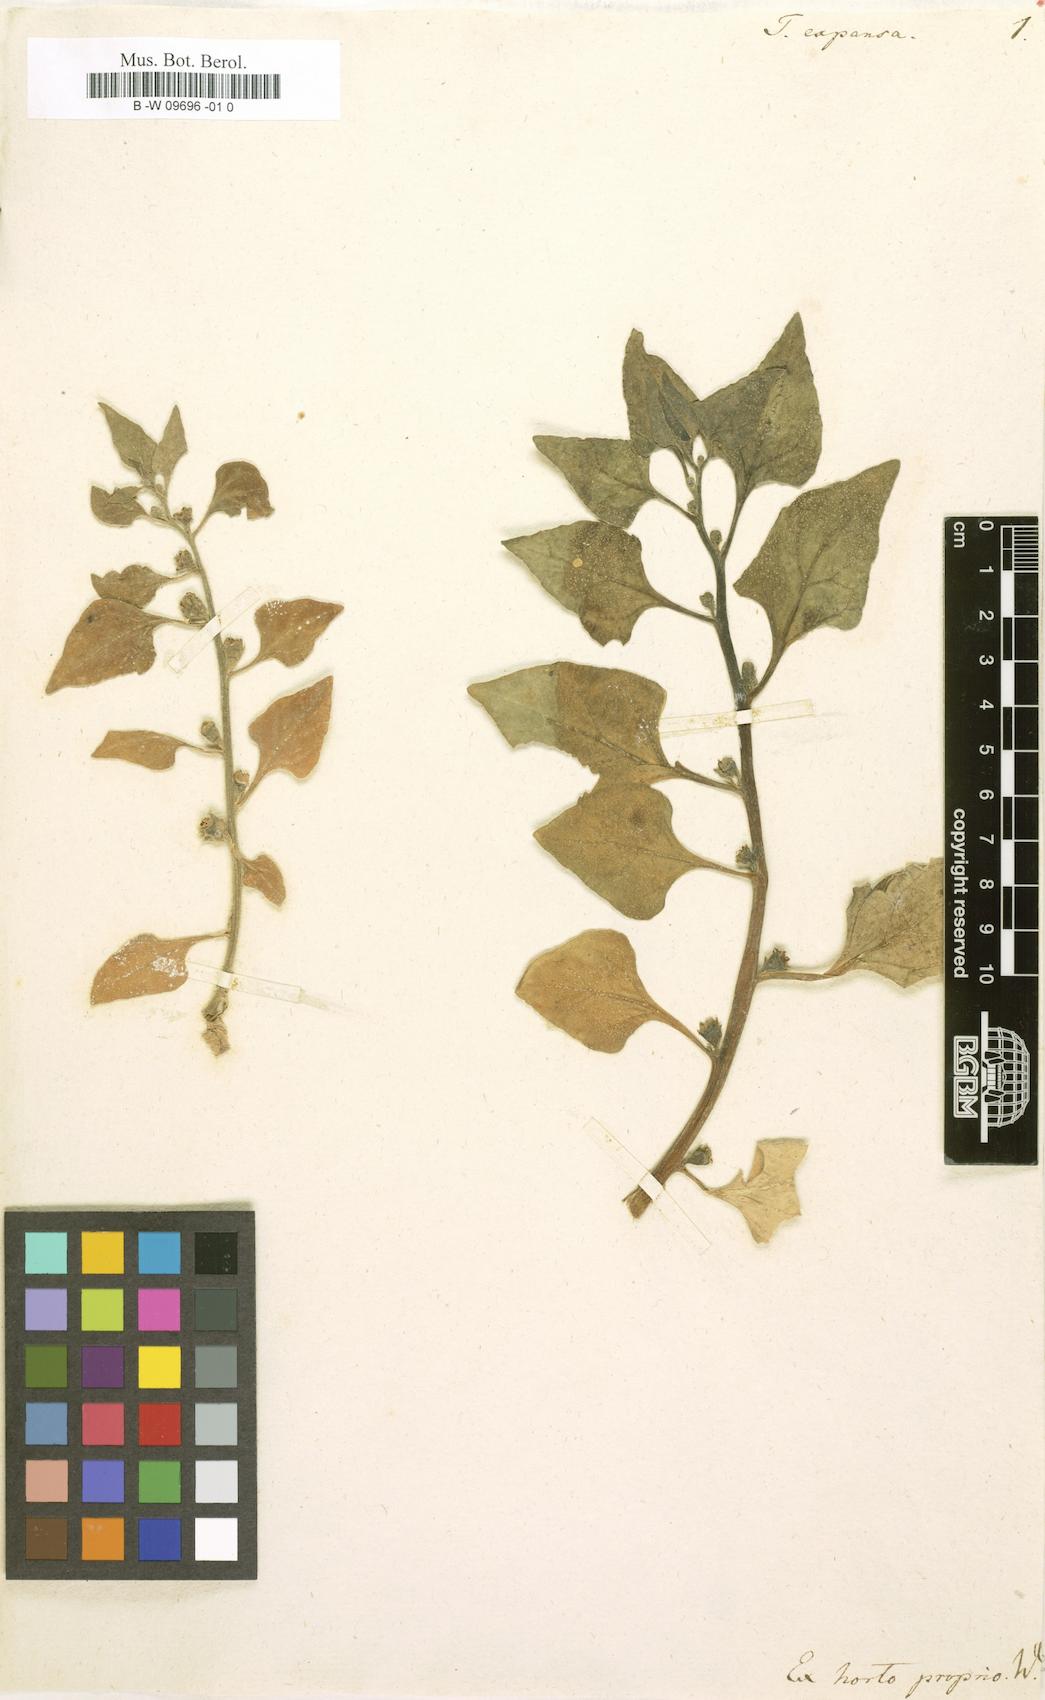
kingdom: Plantae
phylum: Tracheophyta
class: Magnoliopsida
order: Caryophyllales
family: Aizoaceae
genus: Tetragonia
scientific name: Tetragonia expansa
